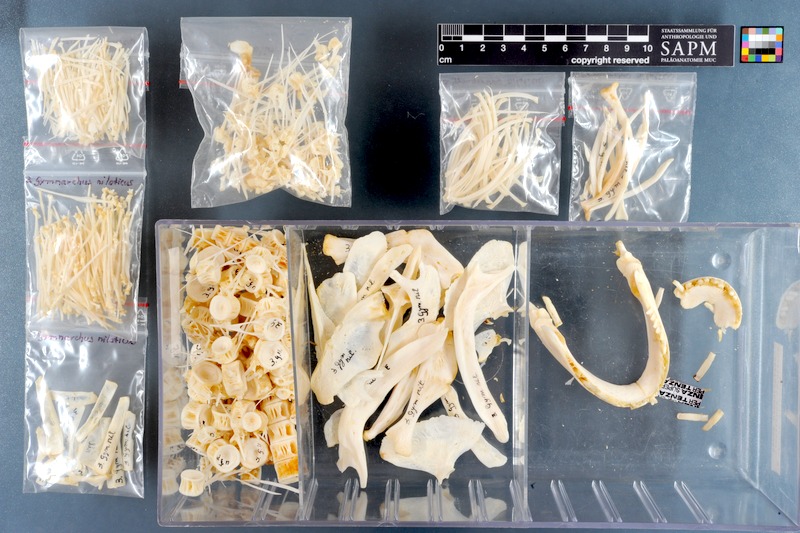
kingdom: Animalia
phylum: Chordata
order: Osteoglossiformes
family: Gymnarchidae
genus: Gymnarchus
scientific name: Gymnarchus niloticus
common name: Aba
